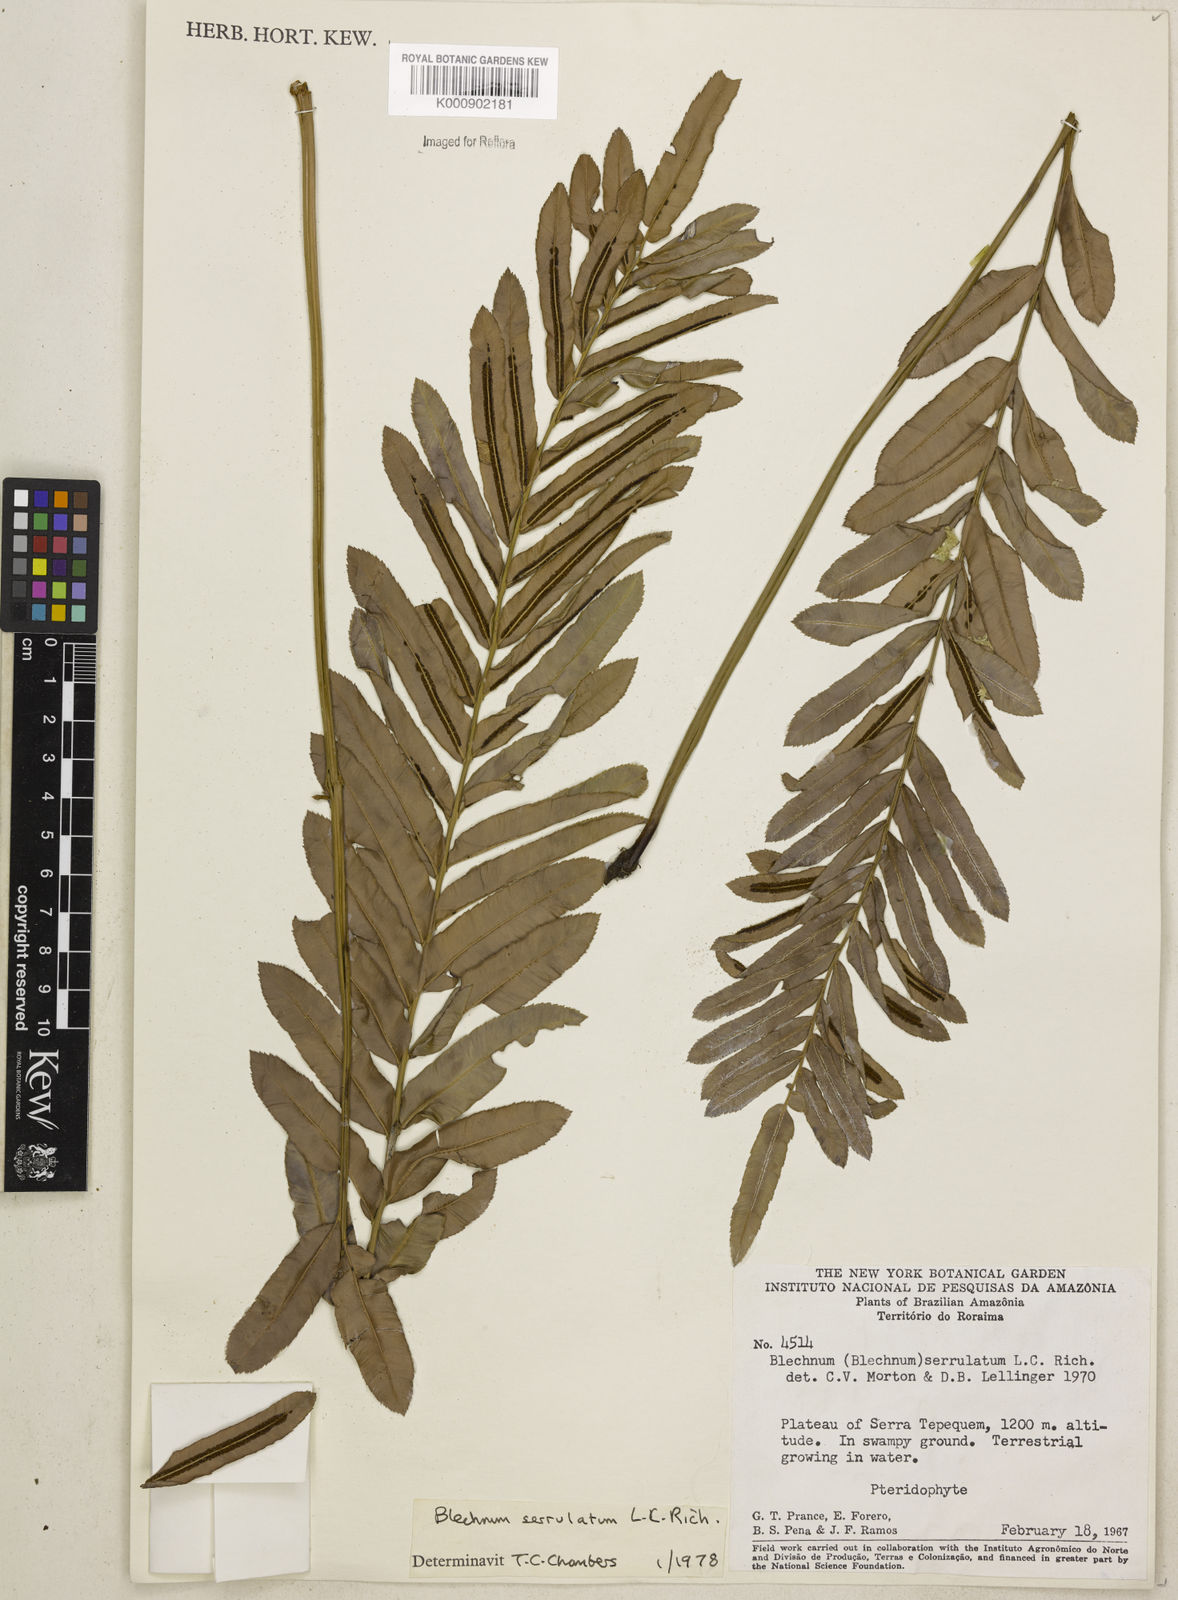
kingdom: Plantae
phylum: Tracheophyta
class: Polypodiopsida
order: Polypodiales
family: Blechnaceae
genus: Telmatoblechnum
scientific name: Telmatoblechnum serrulatum
